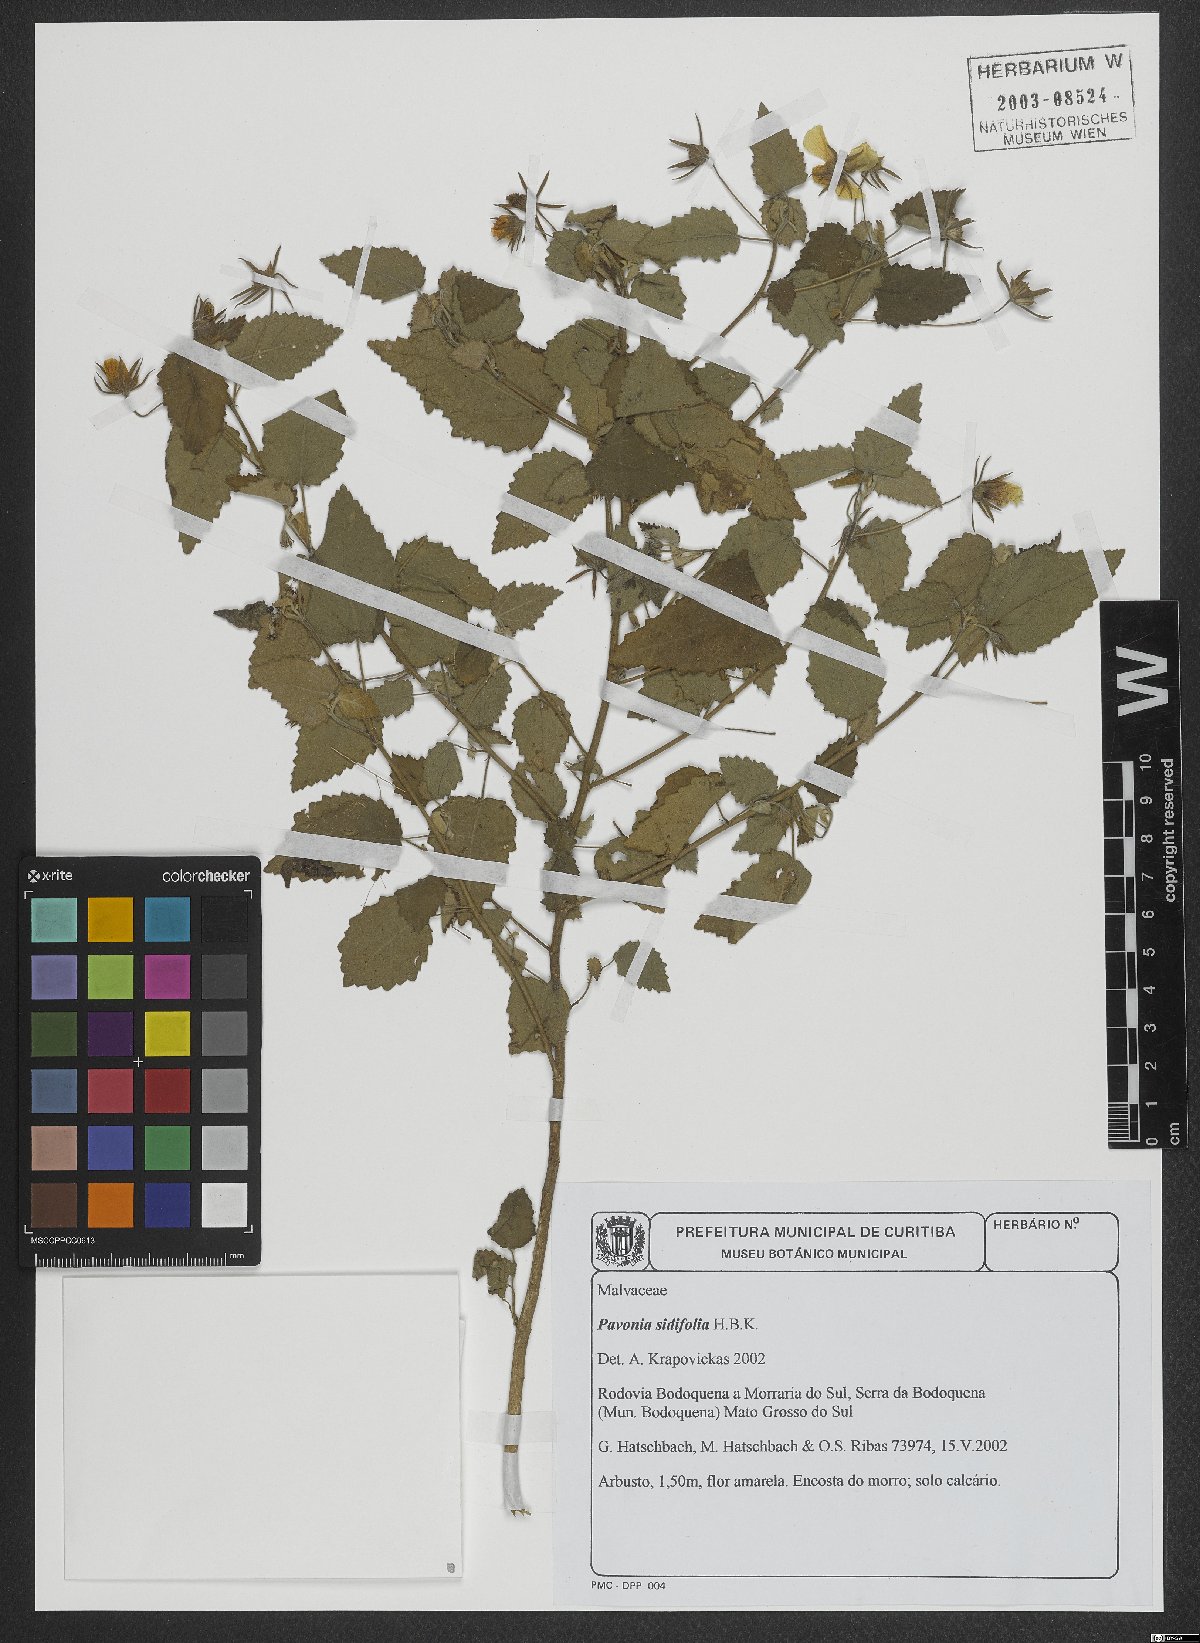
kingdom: Plantae
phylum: Tracheophyta
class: Magnoliopsida
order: Malvales
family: Malvaceae
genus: Pavonia
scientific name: Pavonia sidifolia
